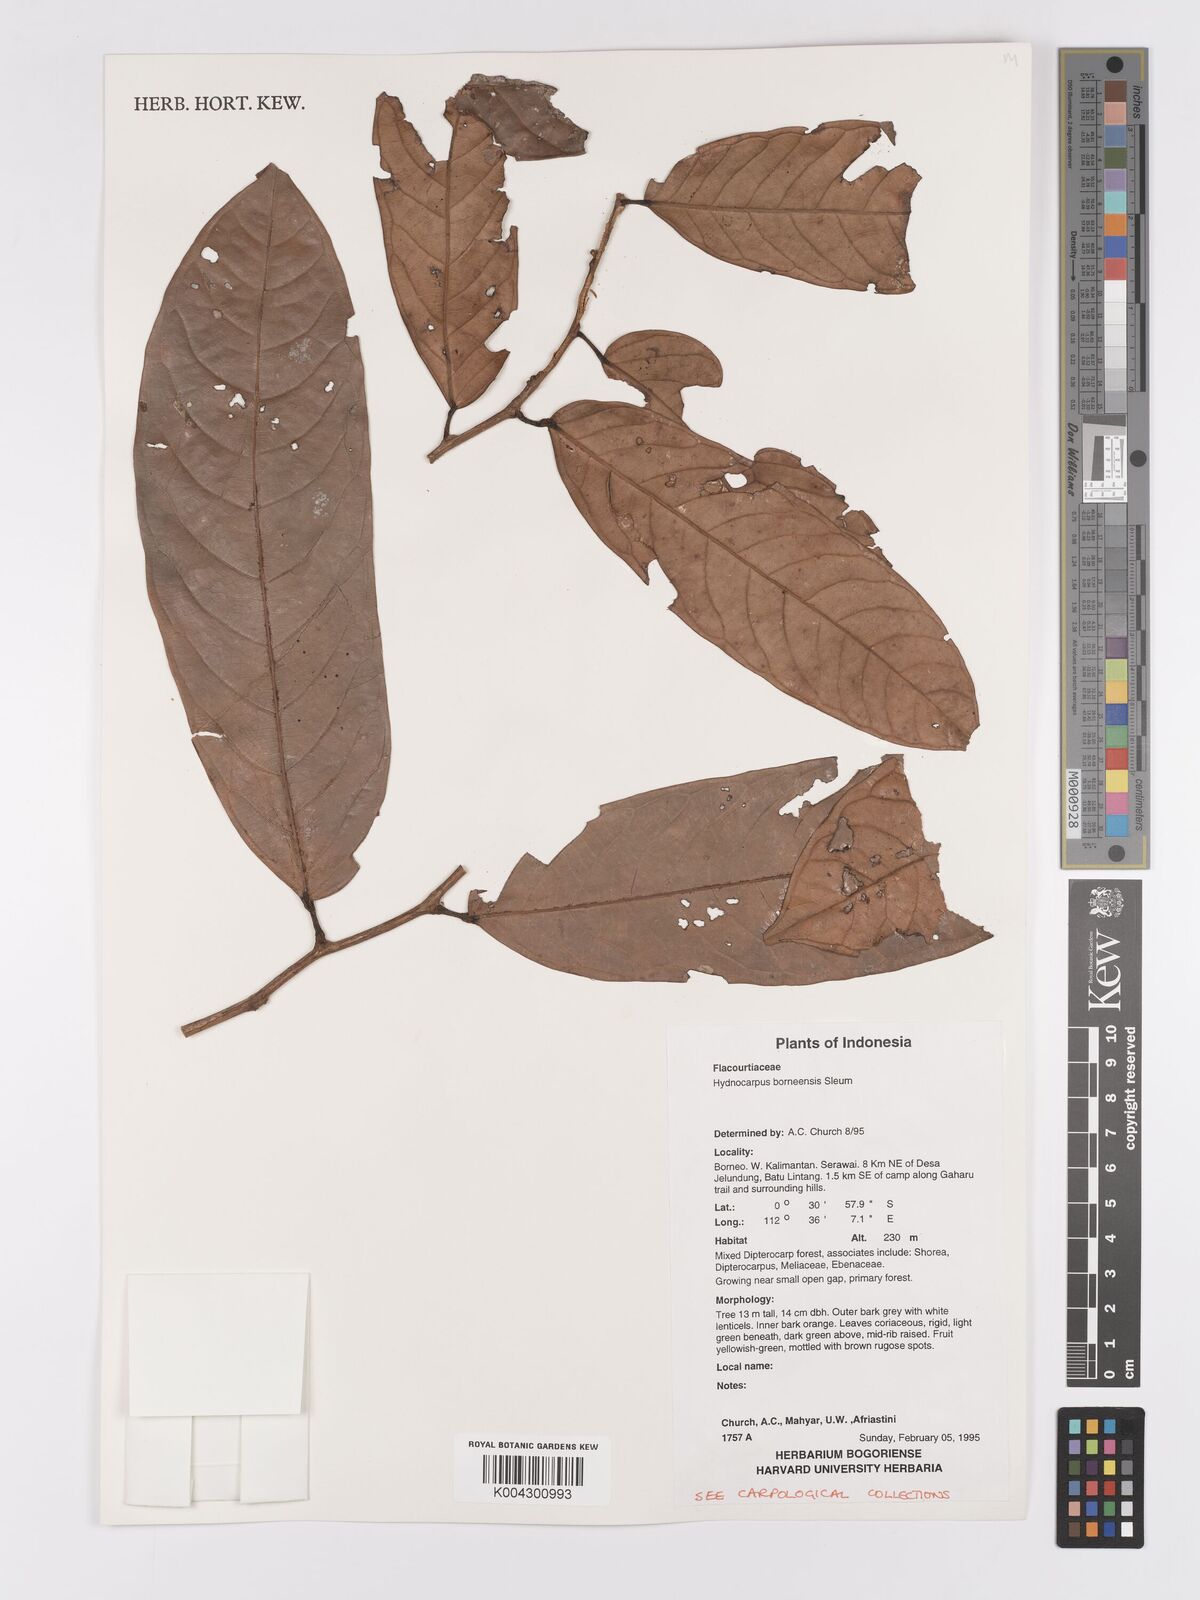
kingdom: Plantae
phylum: Tracheophyta
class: Magnoliopsida
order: Malpighiales
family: Achariaceae
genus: Hydnocarpus
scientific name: Hydnocarpus borneensis
